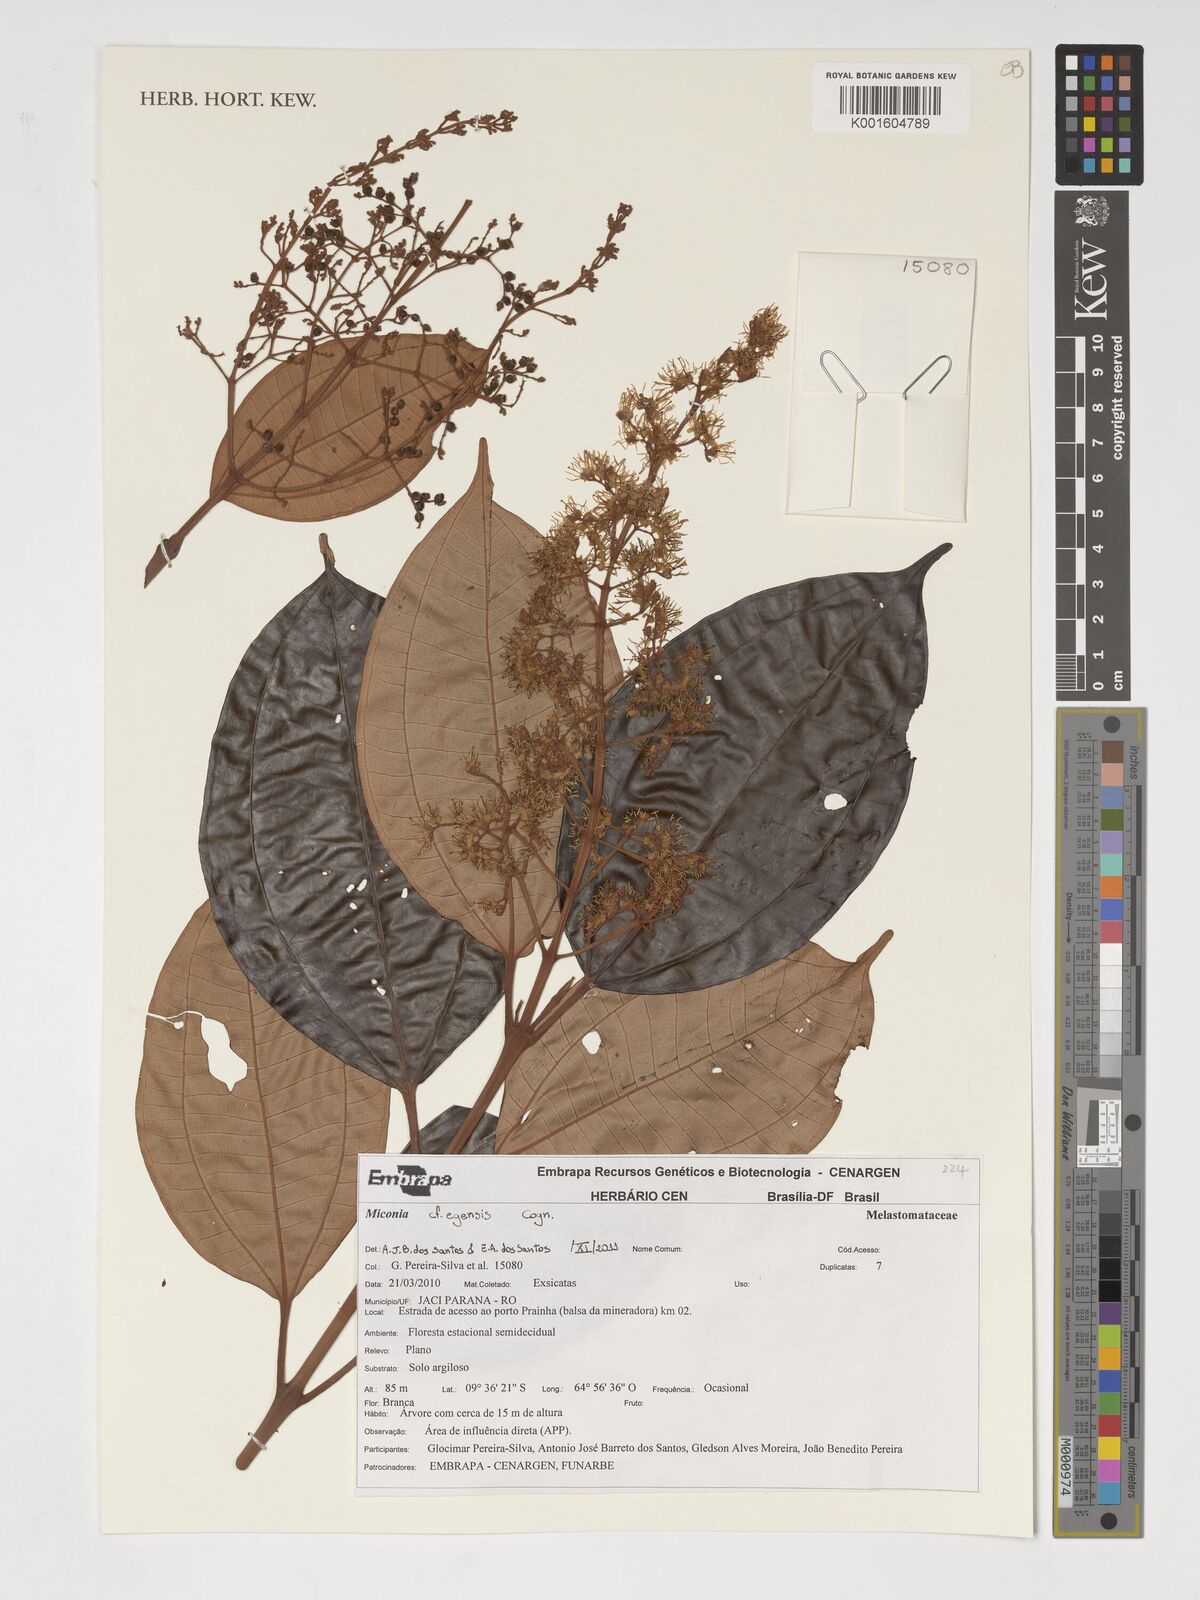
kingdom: Plantae
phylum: Tracheophyta
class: Magnoliopsida
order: Myrtales
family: Melastomataceae
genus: Miconia
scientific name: Miconia egensis
